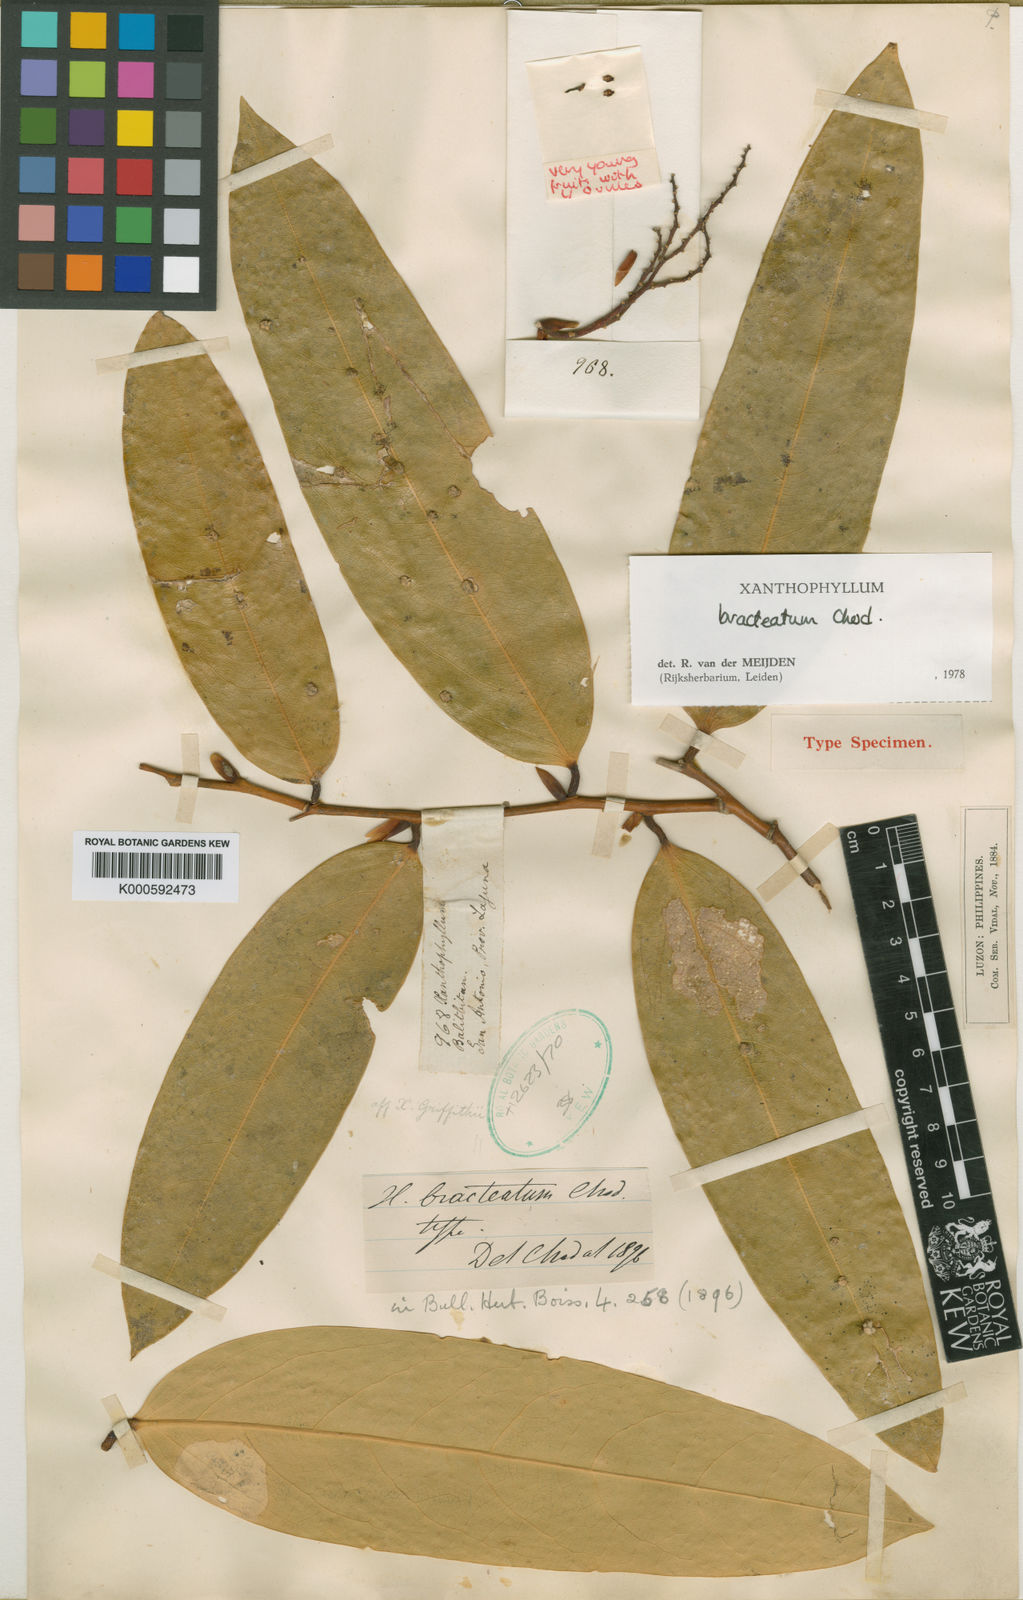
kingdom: Plantae
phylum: Tracheophyta
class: Magnoliopsida
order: Fabales
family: Polygalaceae
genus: Xanthophyllum
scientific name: Xanthophyllum bracteatum
